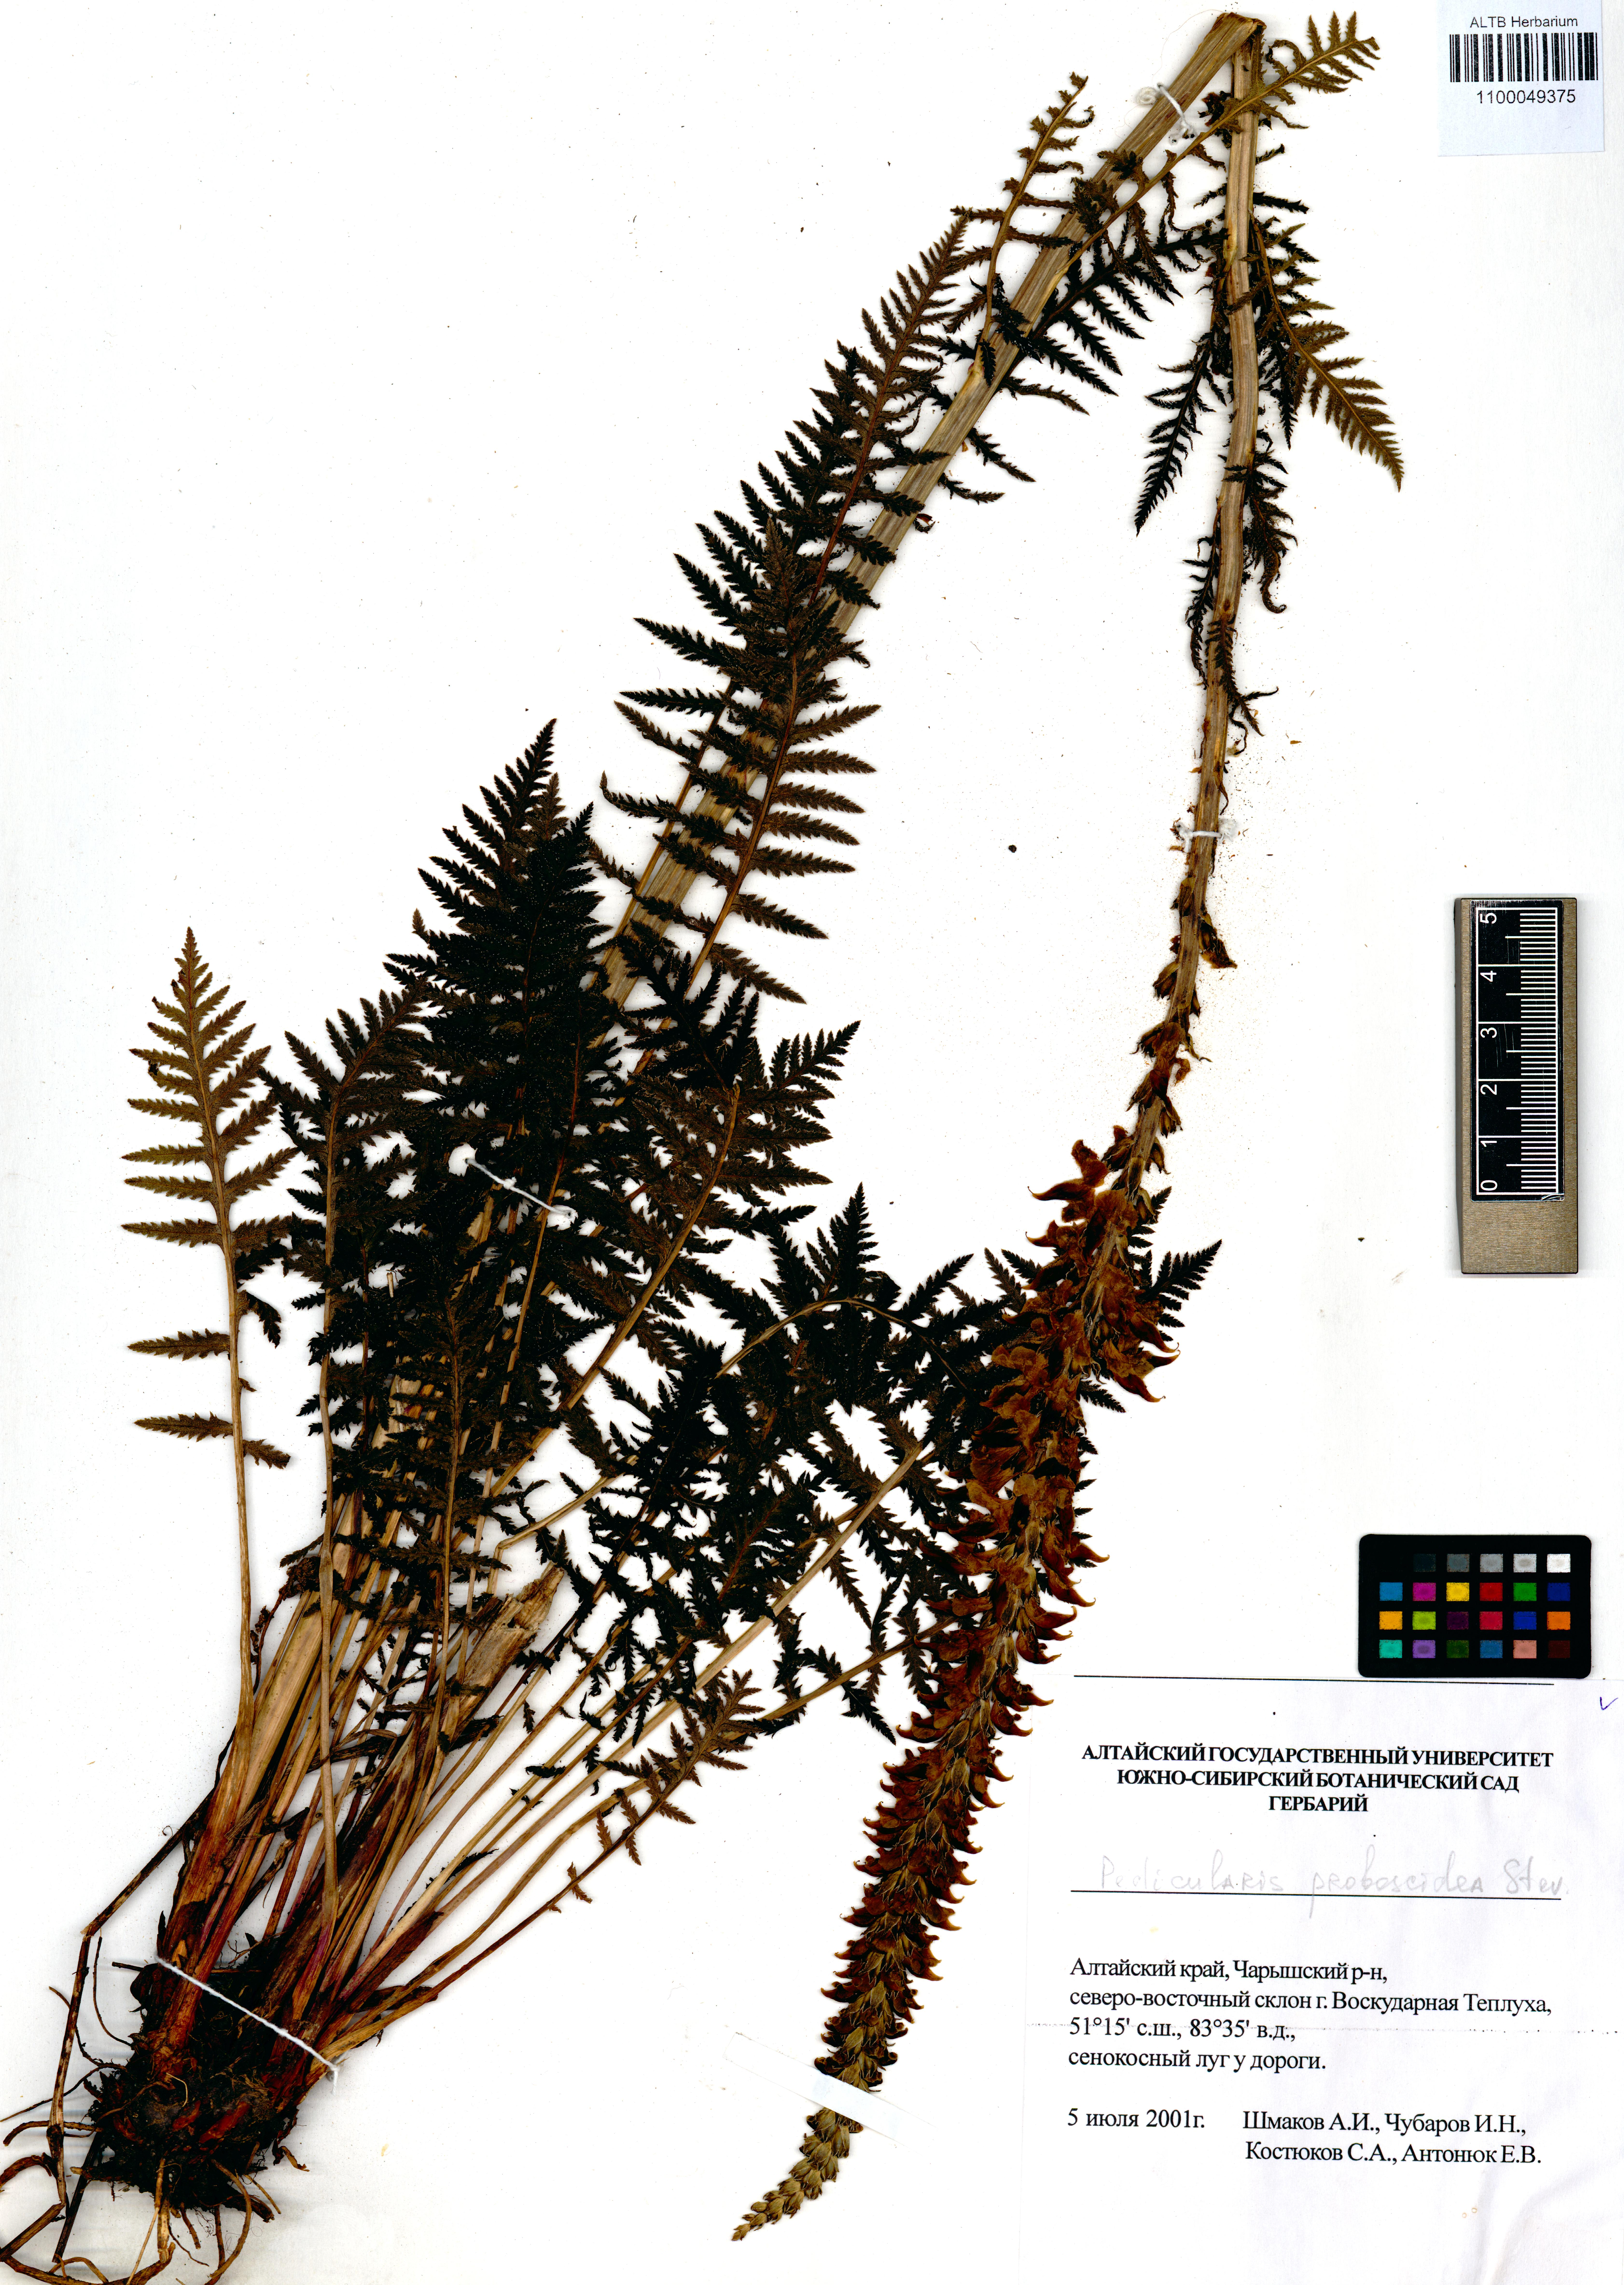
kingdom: Plantae
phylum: Tracheophyta
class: Magnoliopsida
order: Lamiales
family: Orobanchaceae
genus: Pedicularis
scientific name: Pedicularis proboscidea
